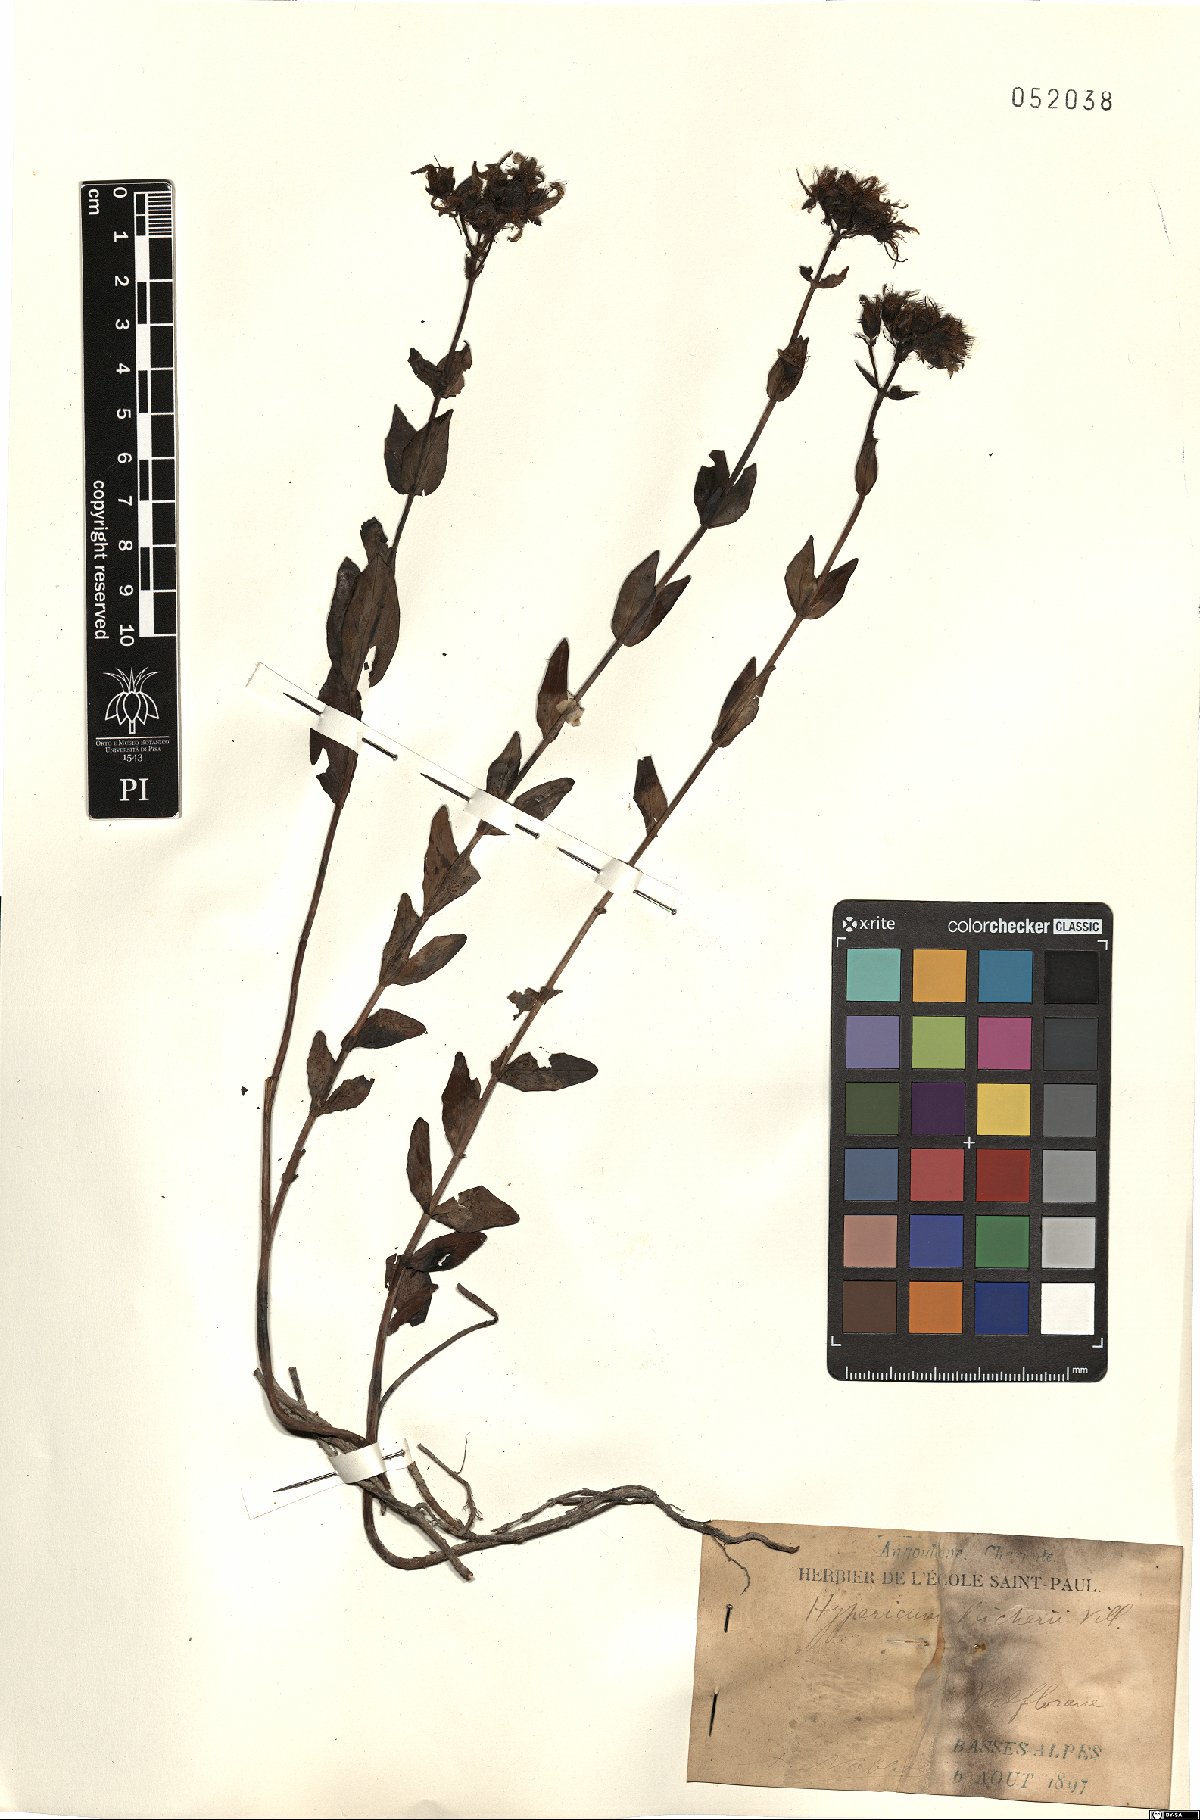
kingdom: Plantae
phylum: Tracheophyta
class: Magnoliopsida
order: Malpighiales
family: Hypericaceae
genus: Hypericum
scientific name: Hypericum richeri
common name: Alpine st john's-wort
